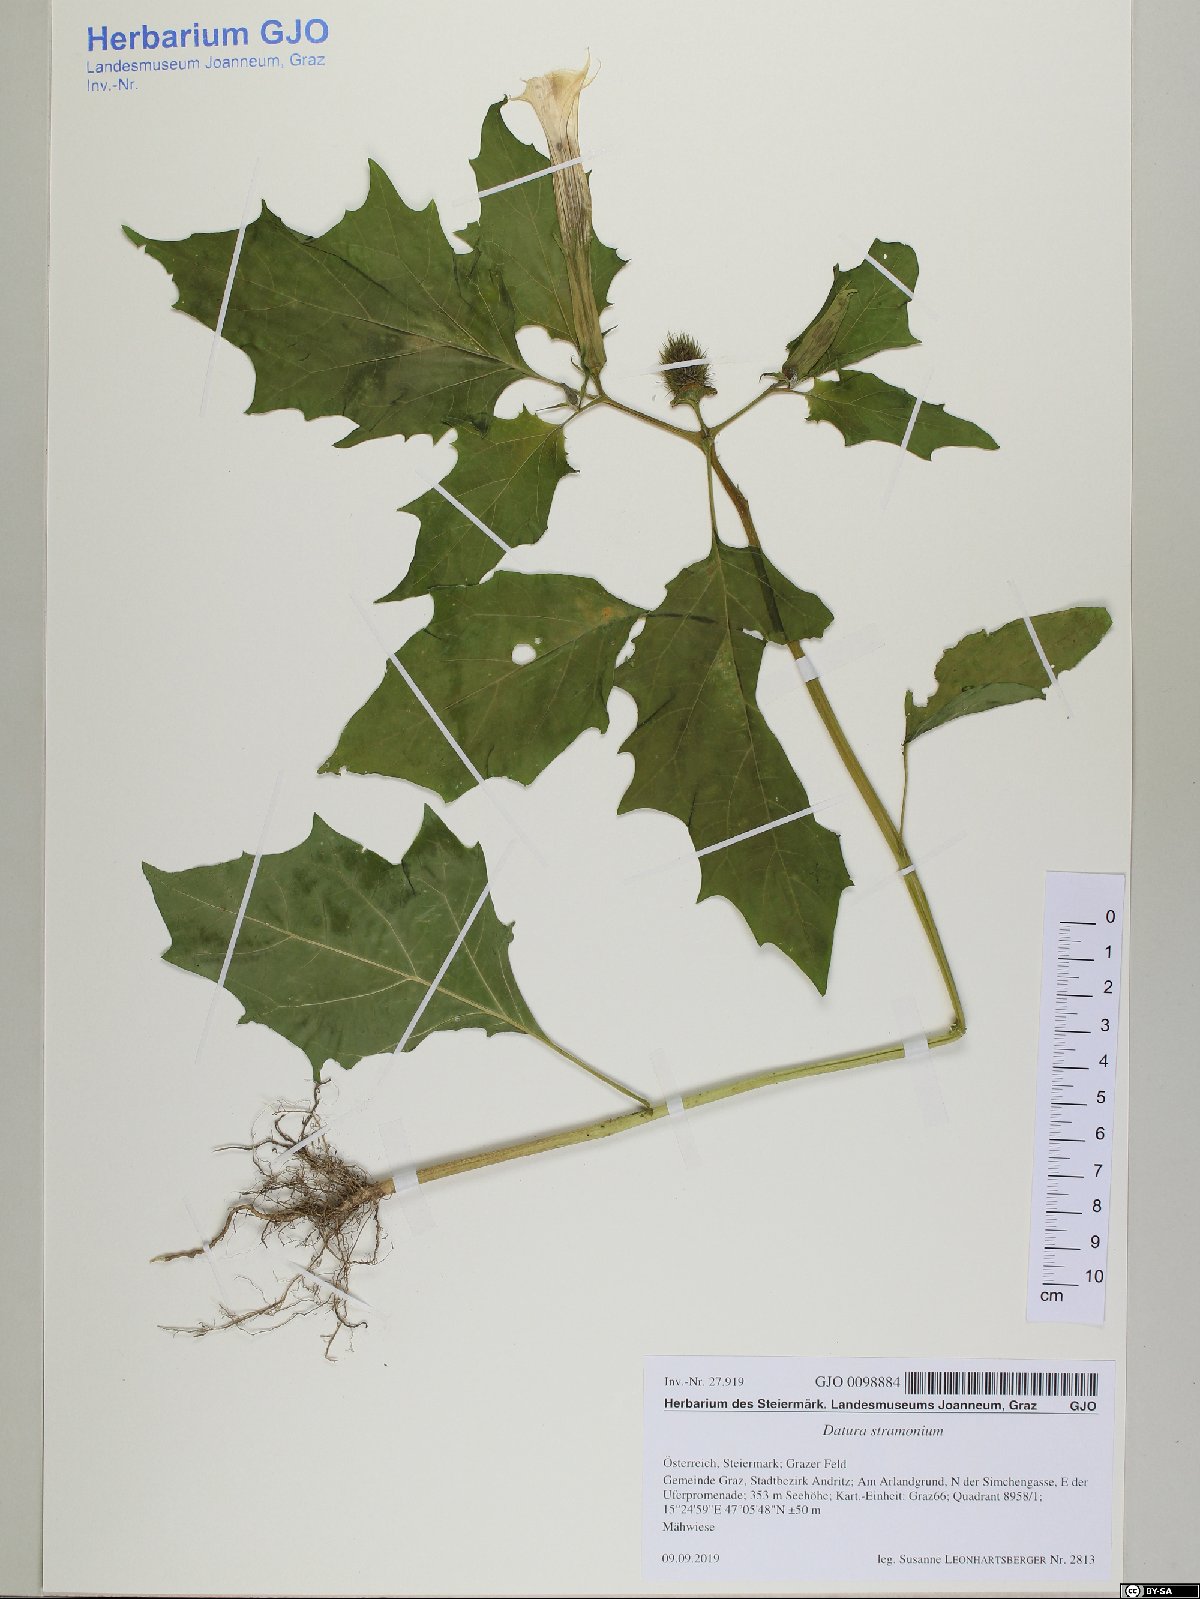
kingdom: Plantae
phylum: Tracheophyta
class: Magnoliopsida
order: Solanales
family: Solanaceae
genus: Datura
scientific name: Datura stramonium
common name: Thorn-apple
